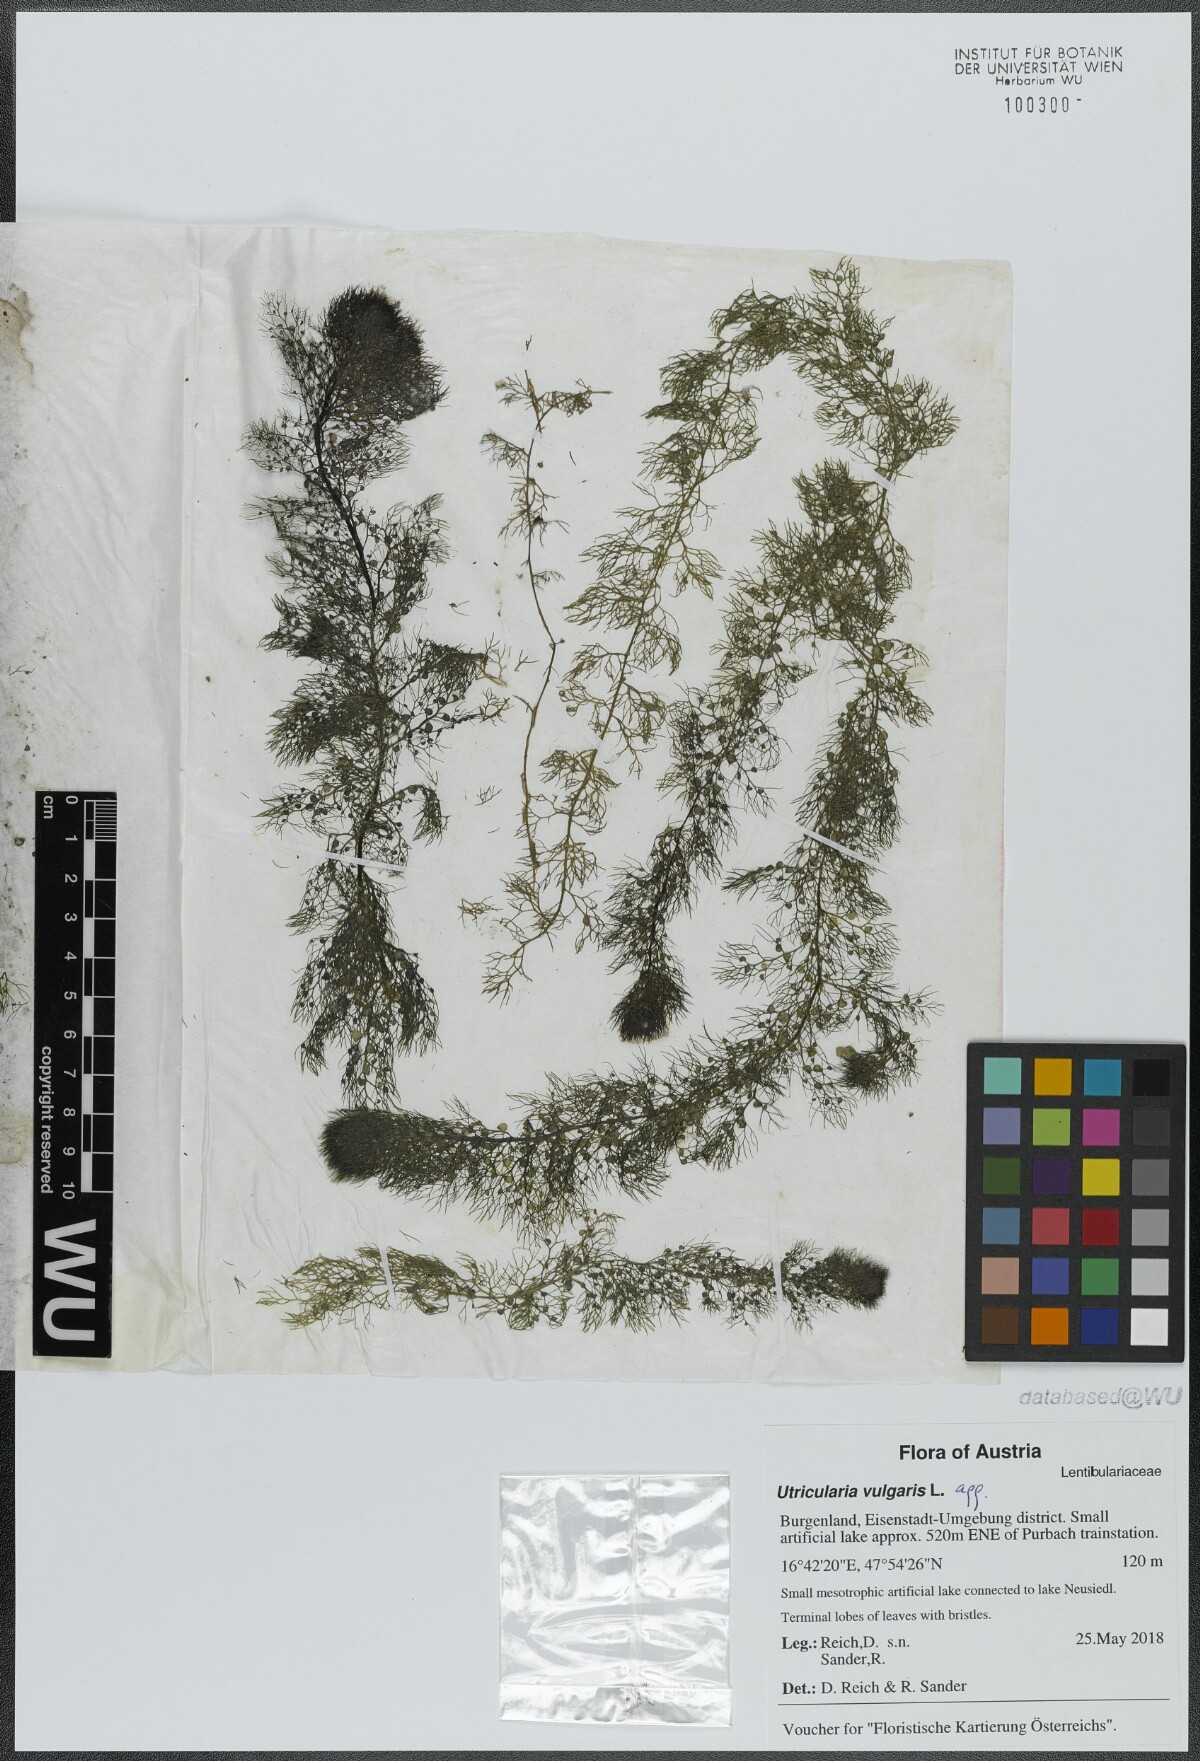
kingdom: Plantae
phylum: Tracheophyta
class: Magnoliopsida
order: Lamiales
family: Lentibulariaceae
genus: Utricularia
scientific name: Utricularia vulgaris
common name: Greater bladderwort
